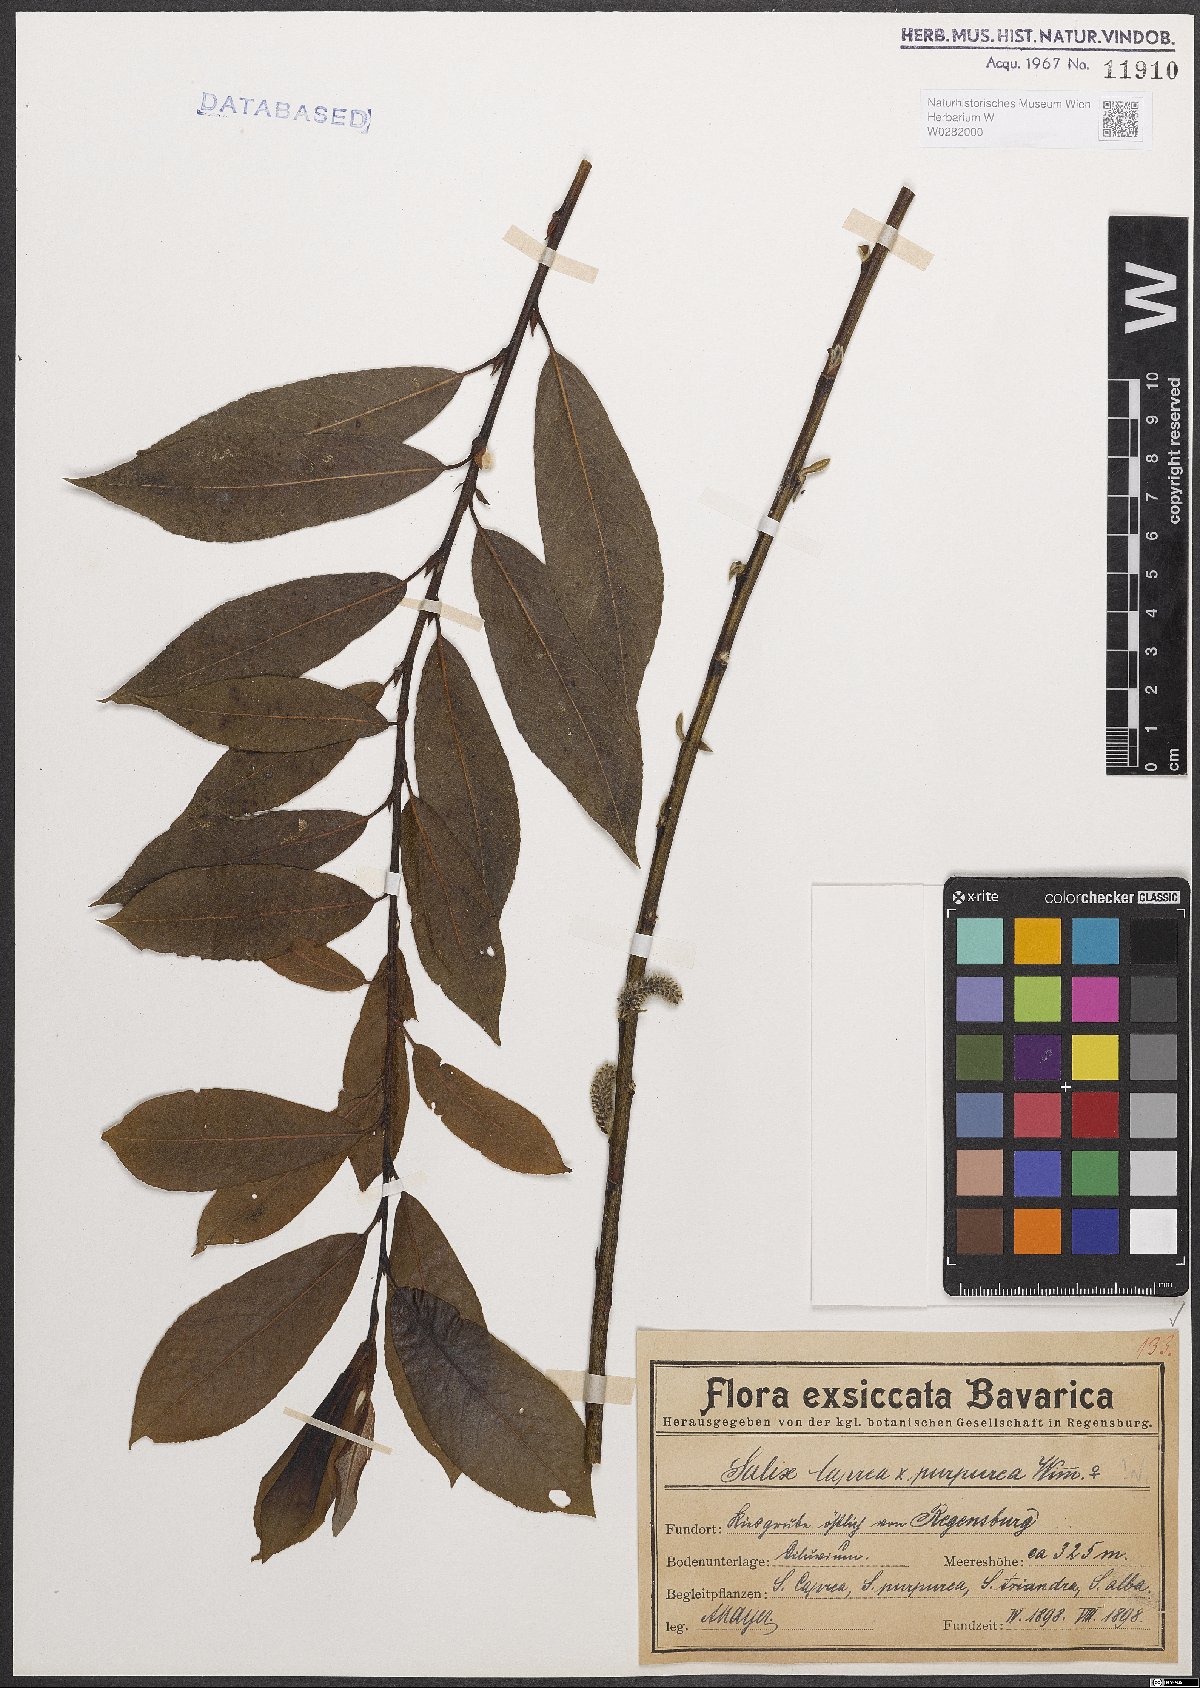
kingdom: Plantae
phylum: Tracheophyta
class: Magnoliopsida
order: Malpighiales
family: Salicaceae
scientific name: Salicaceae
